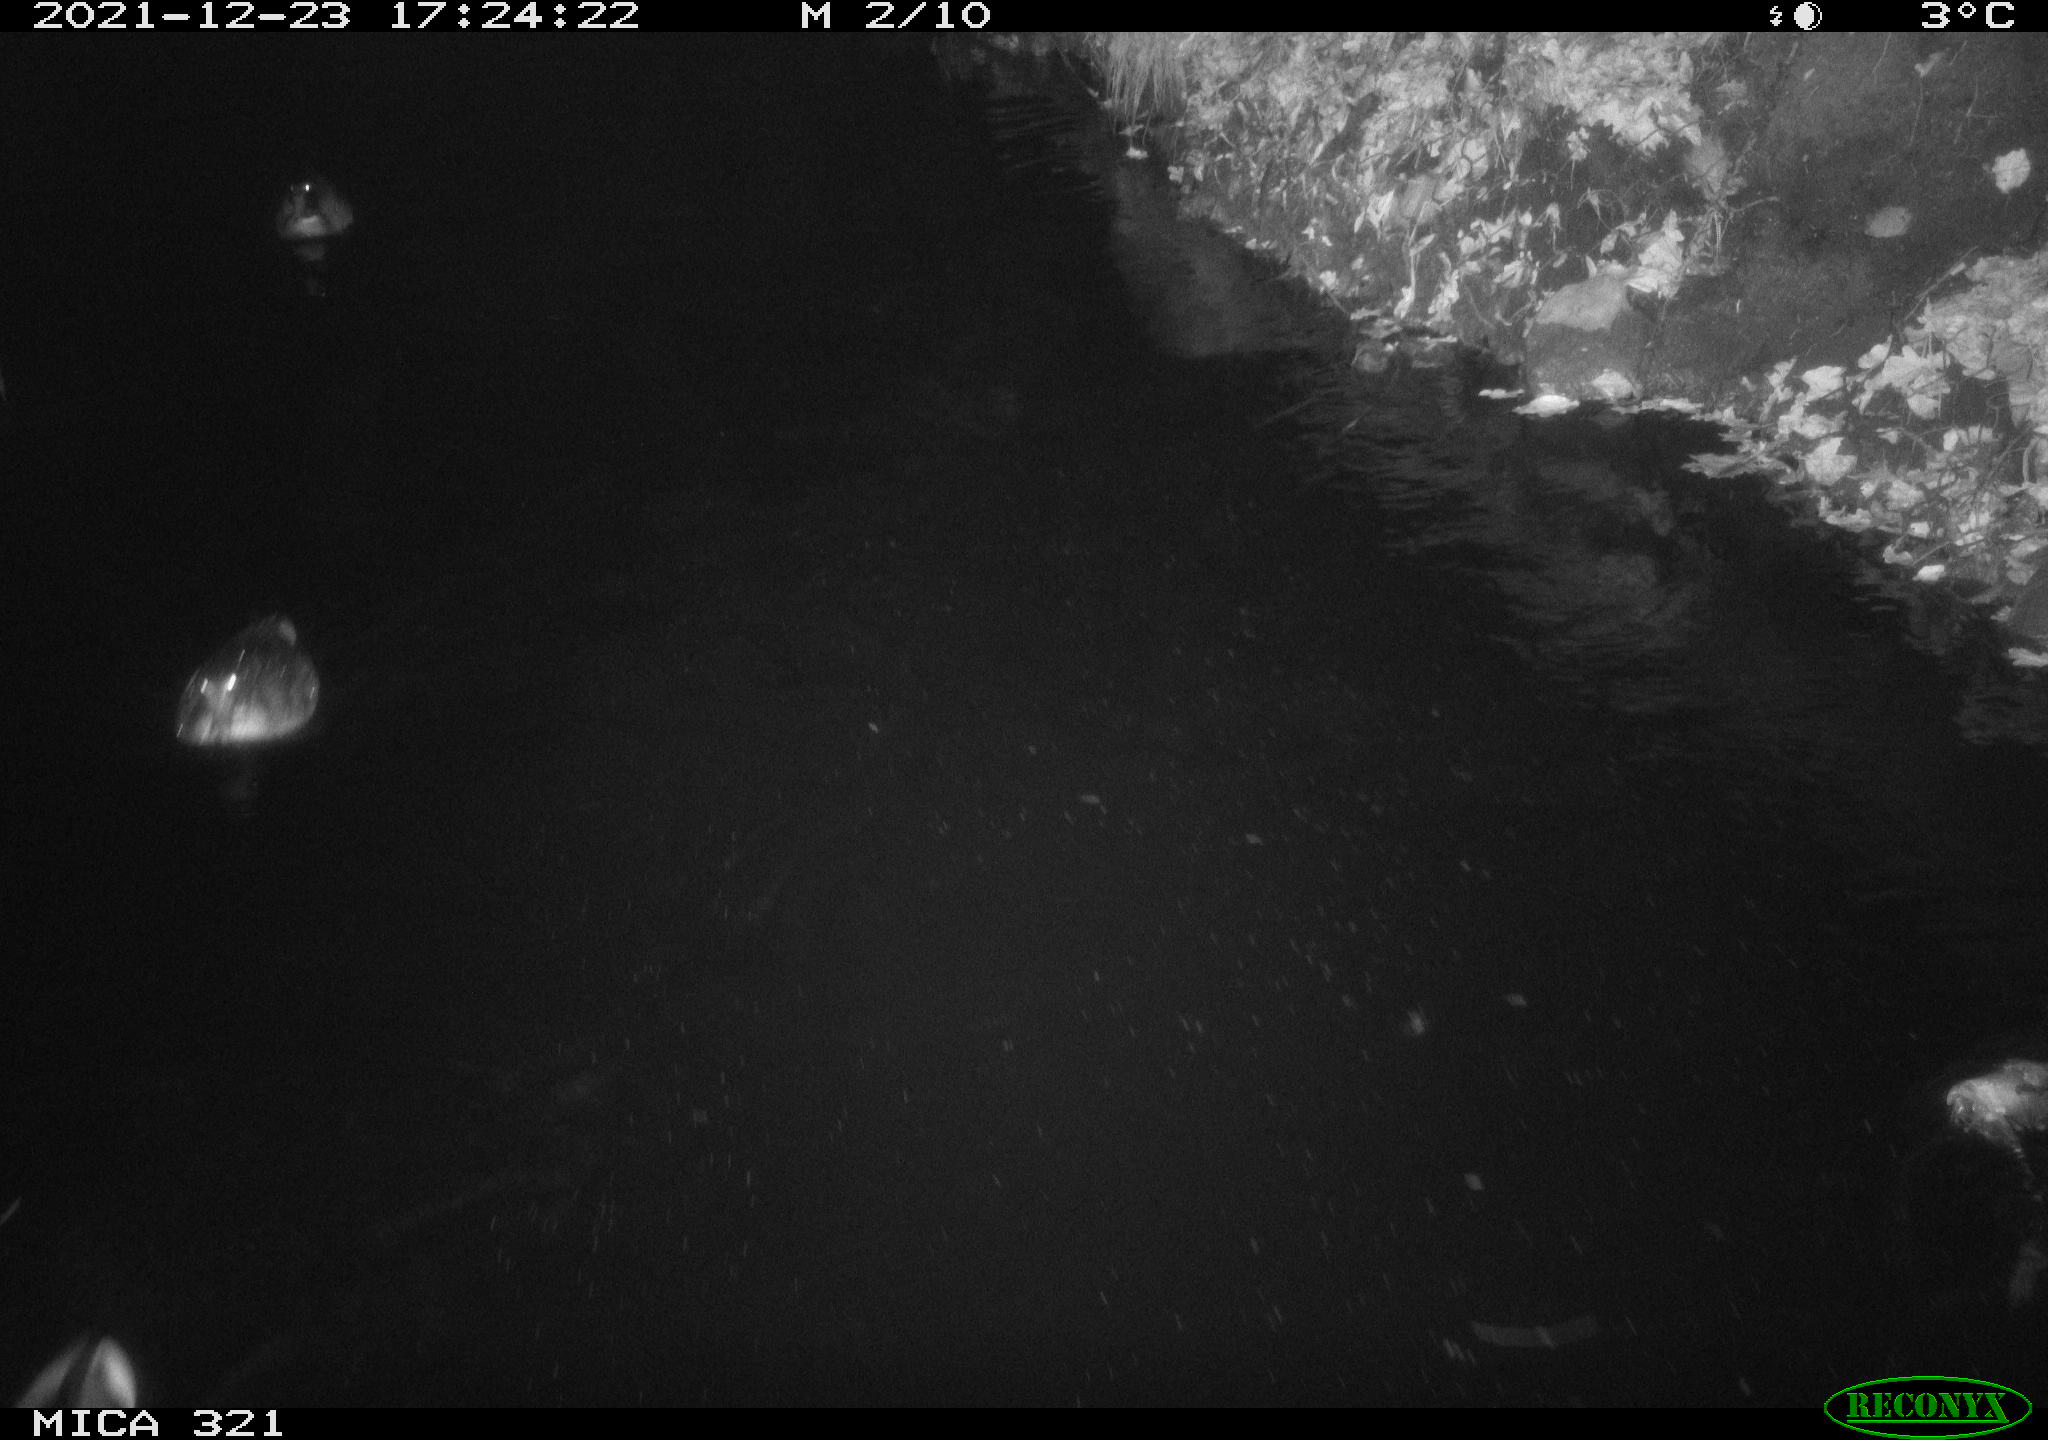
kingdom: Animalia
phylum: Chordata
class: Aves
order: Anseriformes
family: Anatidae
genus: Anas
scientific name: Anas
